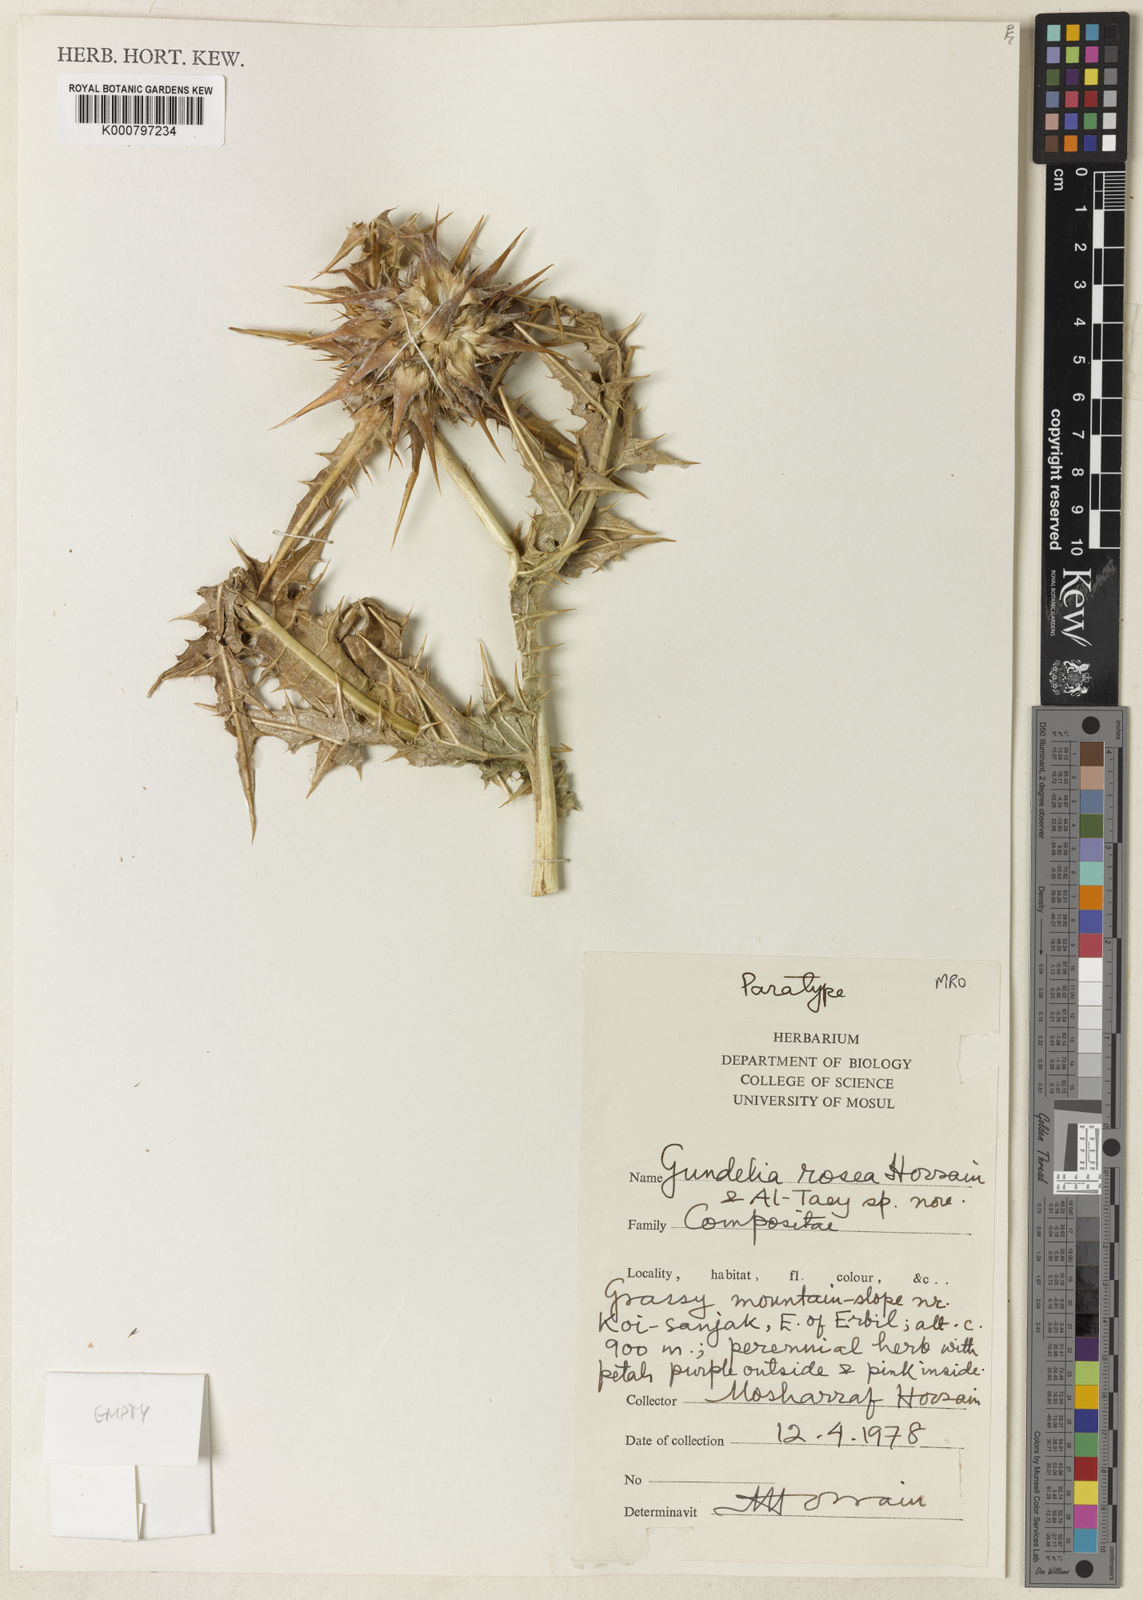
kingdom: Plantae
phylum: Tracheophyta
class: Magnoliopsida
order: Asterales
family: Asteraceae
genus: Gundelia
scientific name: Gundelia rosea
